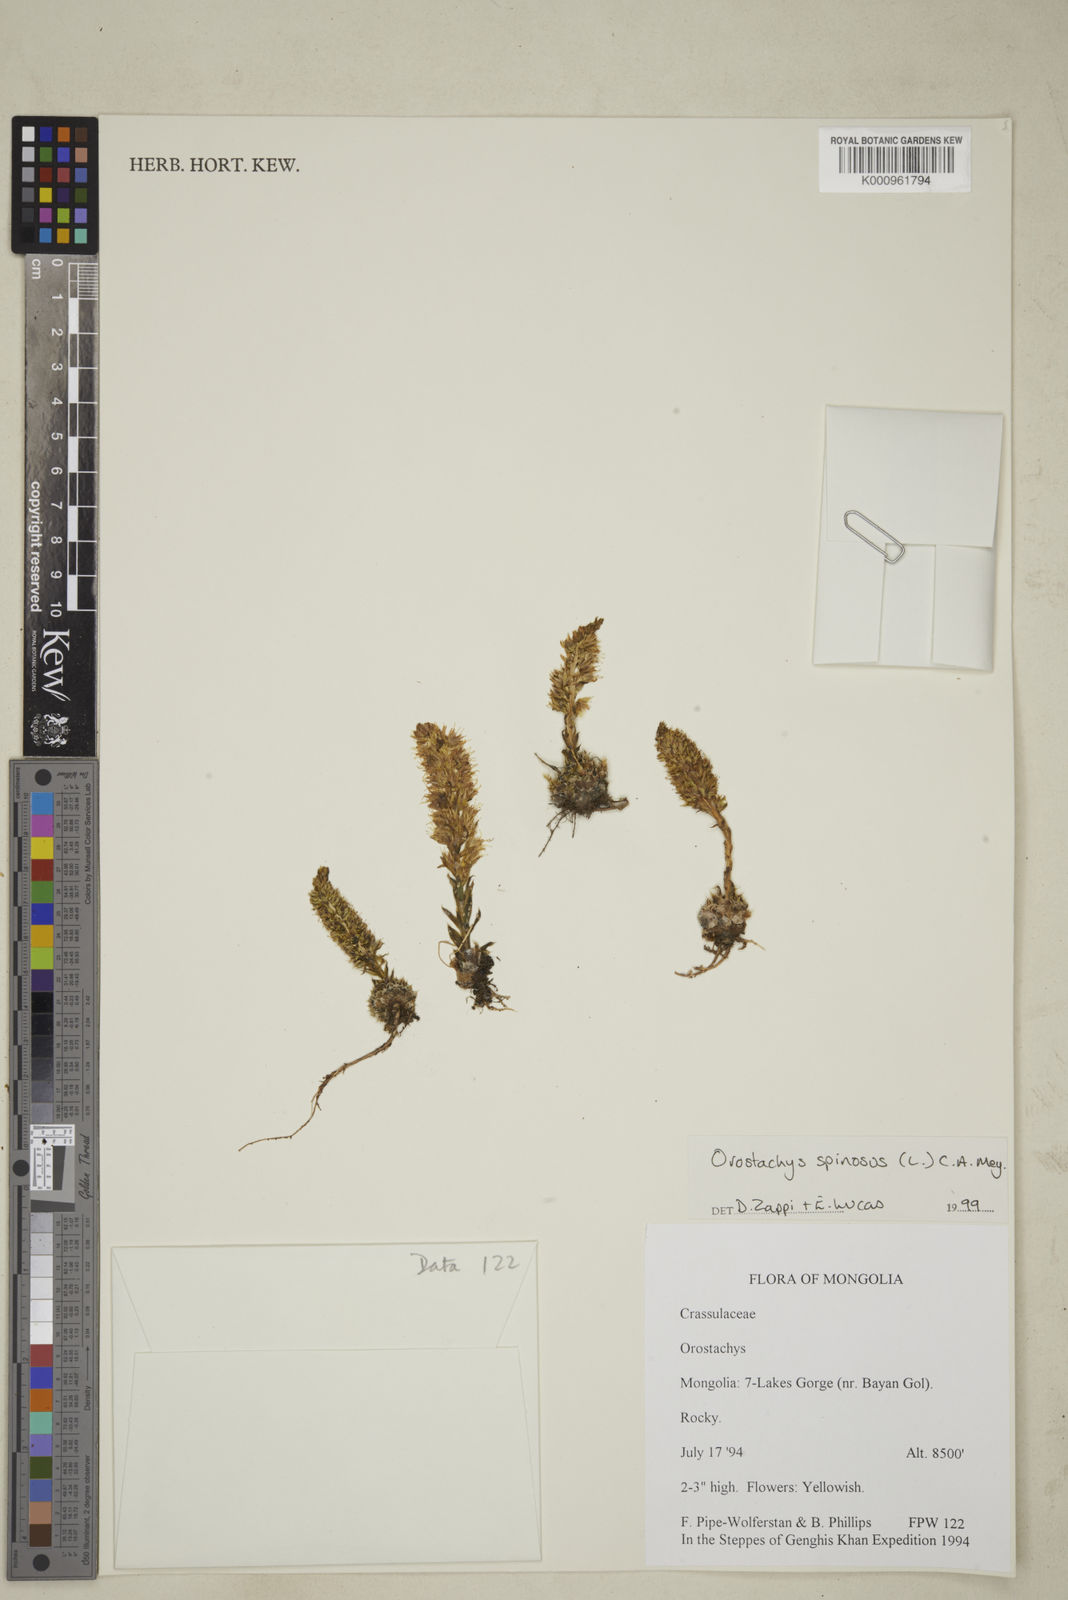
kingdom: Plantae
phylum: Tracheophyta
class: Magnoliopsida
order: Saxifragales
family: Crassulaceae
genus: Orostachys
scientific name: Orostachys spinosa
